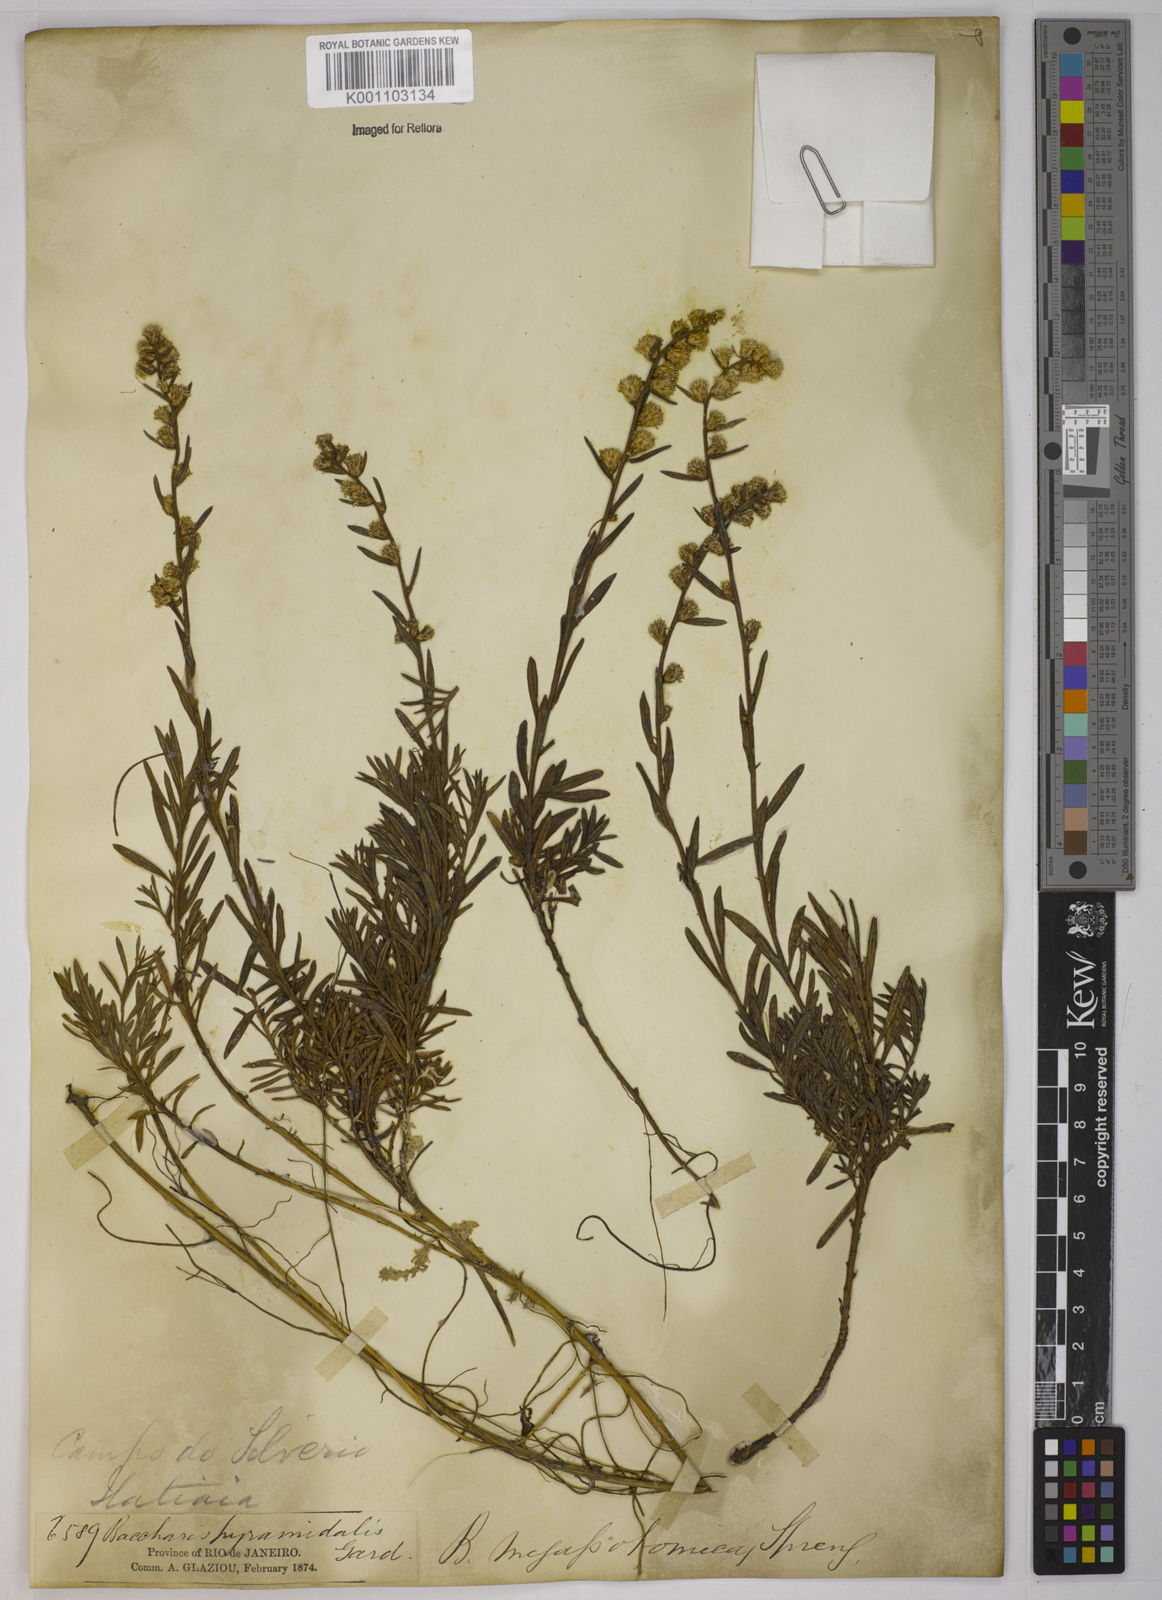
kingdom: Plantae
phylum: Tracheophyta
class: Magnoliopsida
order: Asterales
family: Asteraceae
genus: Baccharis
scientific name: Baccharis megapotamica
